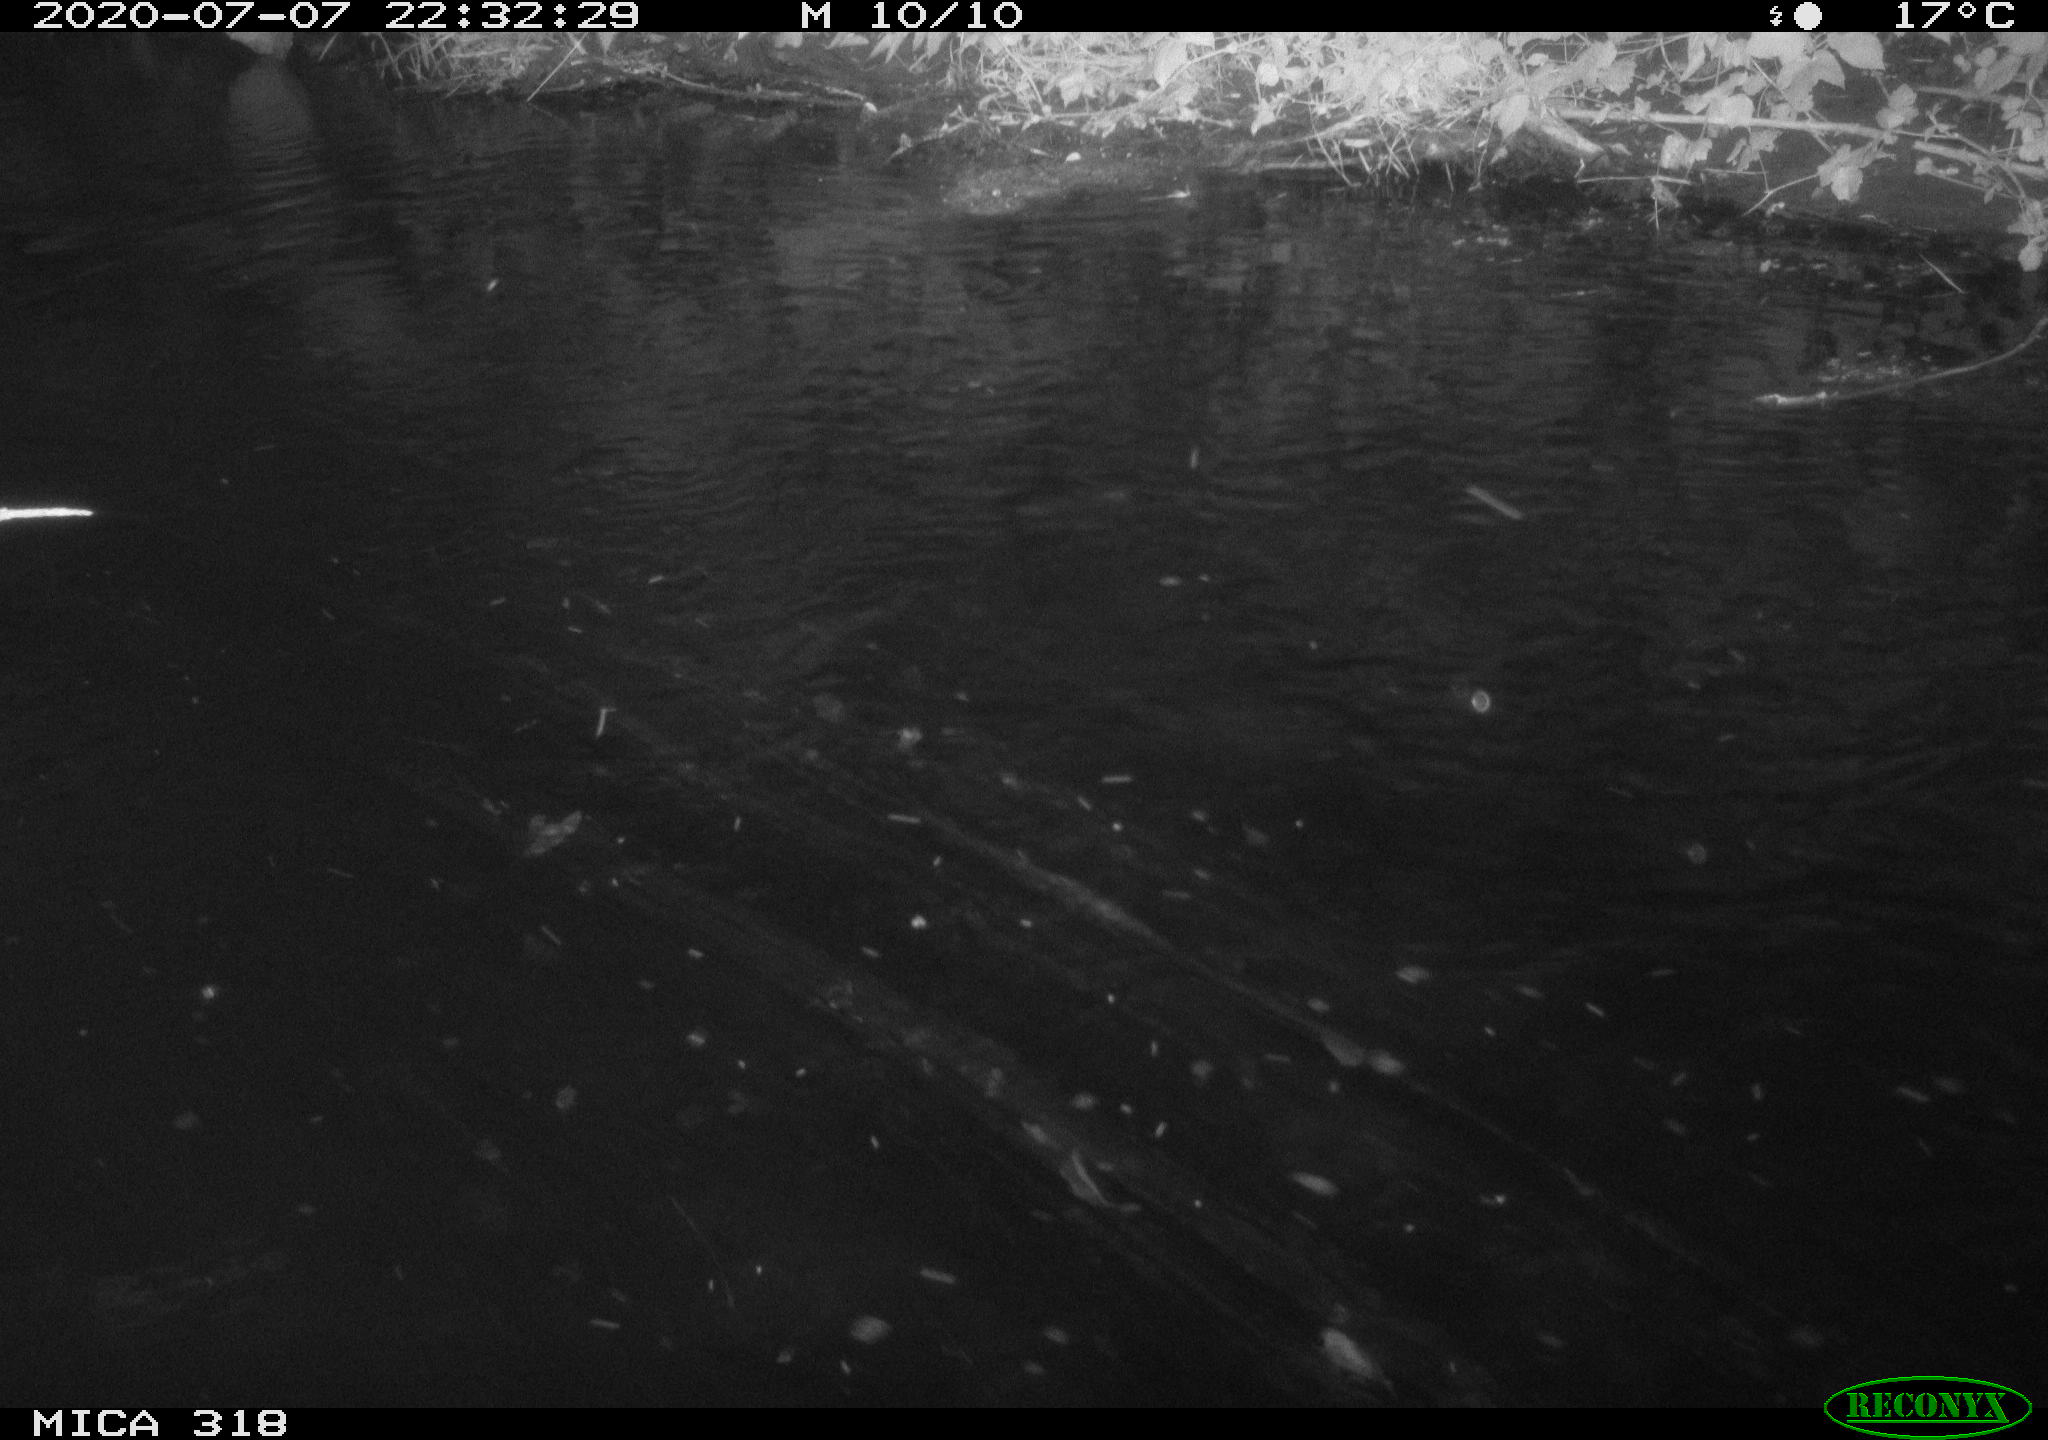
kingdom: Animalia
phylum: Chordata
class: Aves
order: Anseriformes
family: Anatidae
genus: Mareca
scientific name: Mareca strepera
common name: Gadwall
